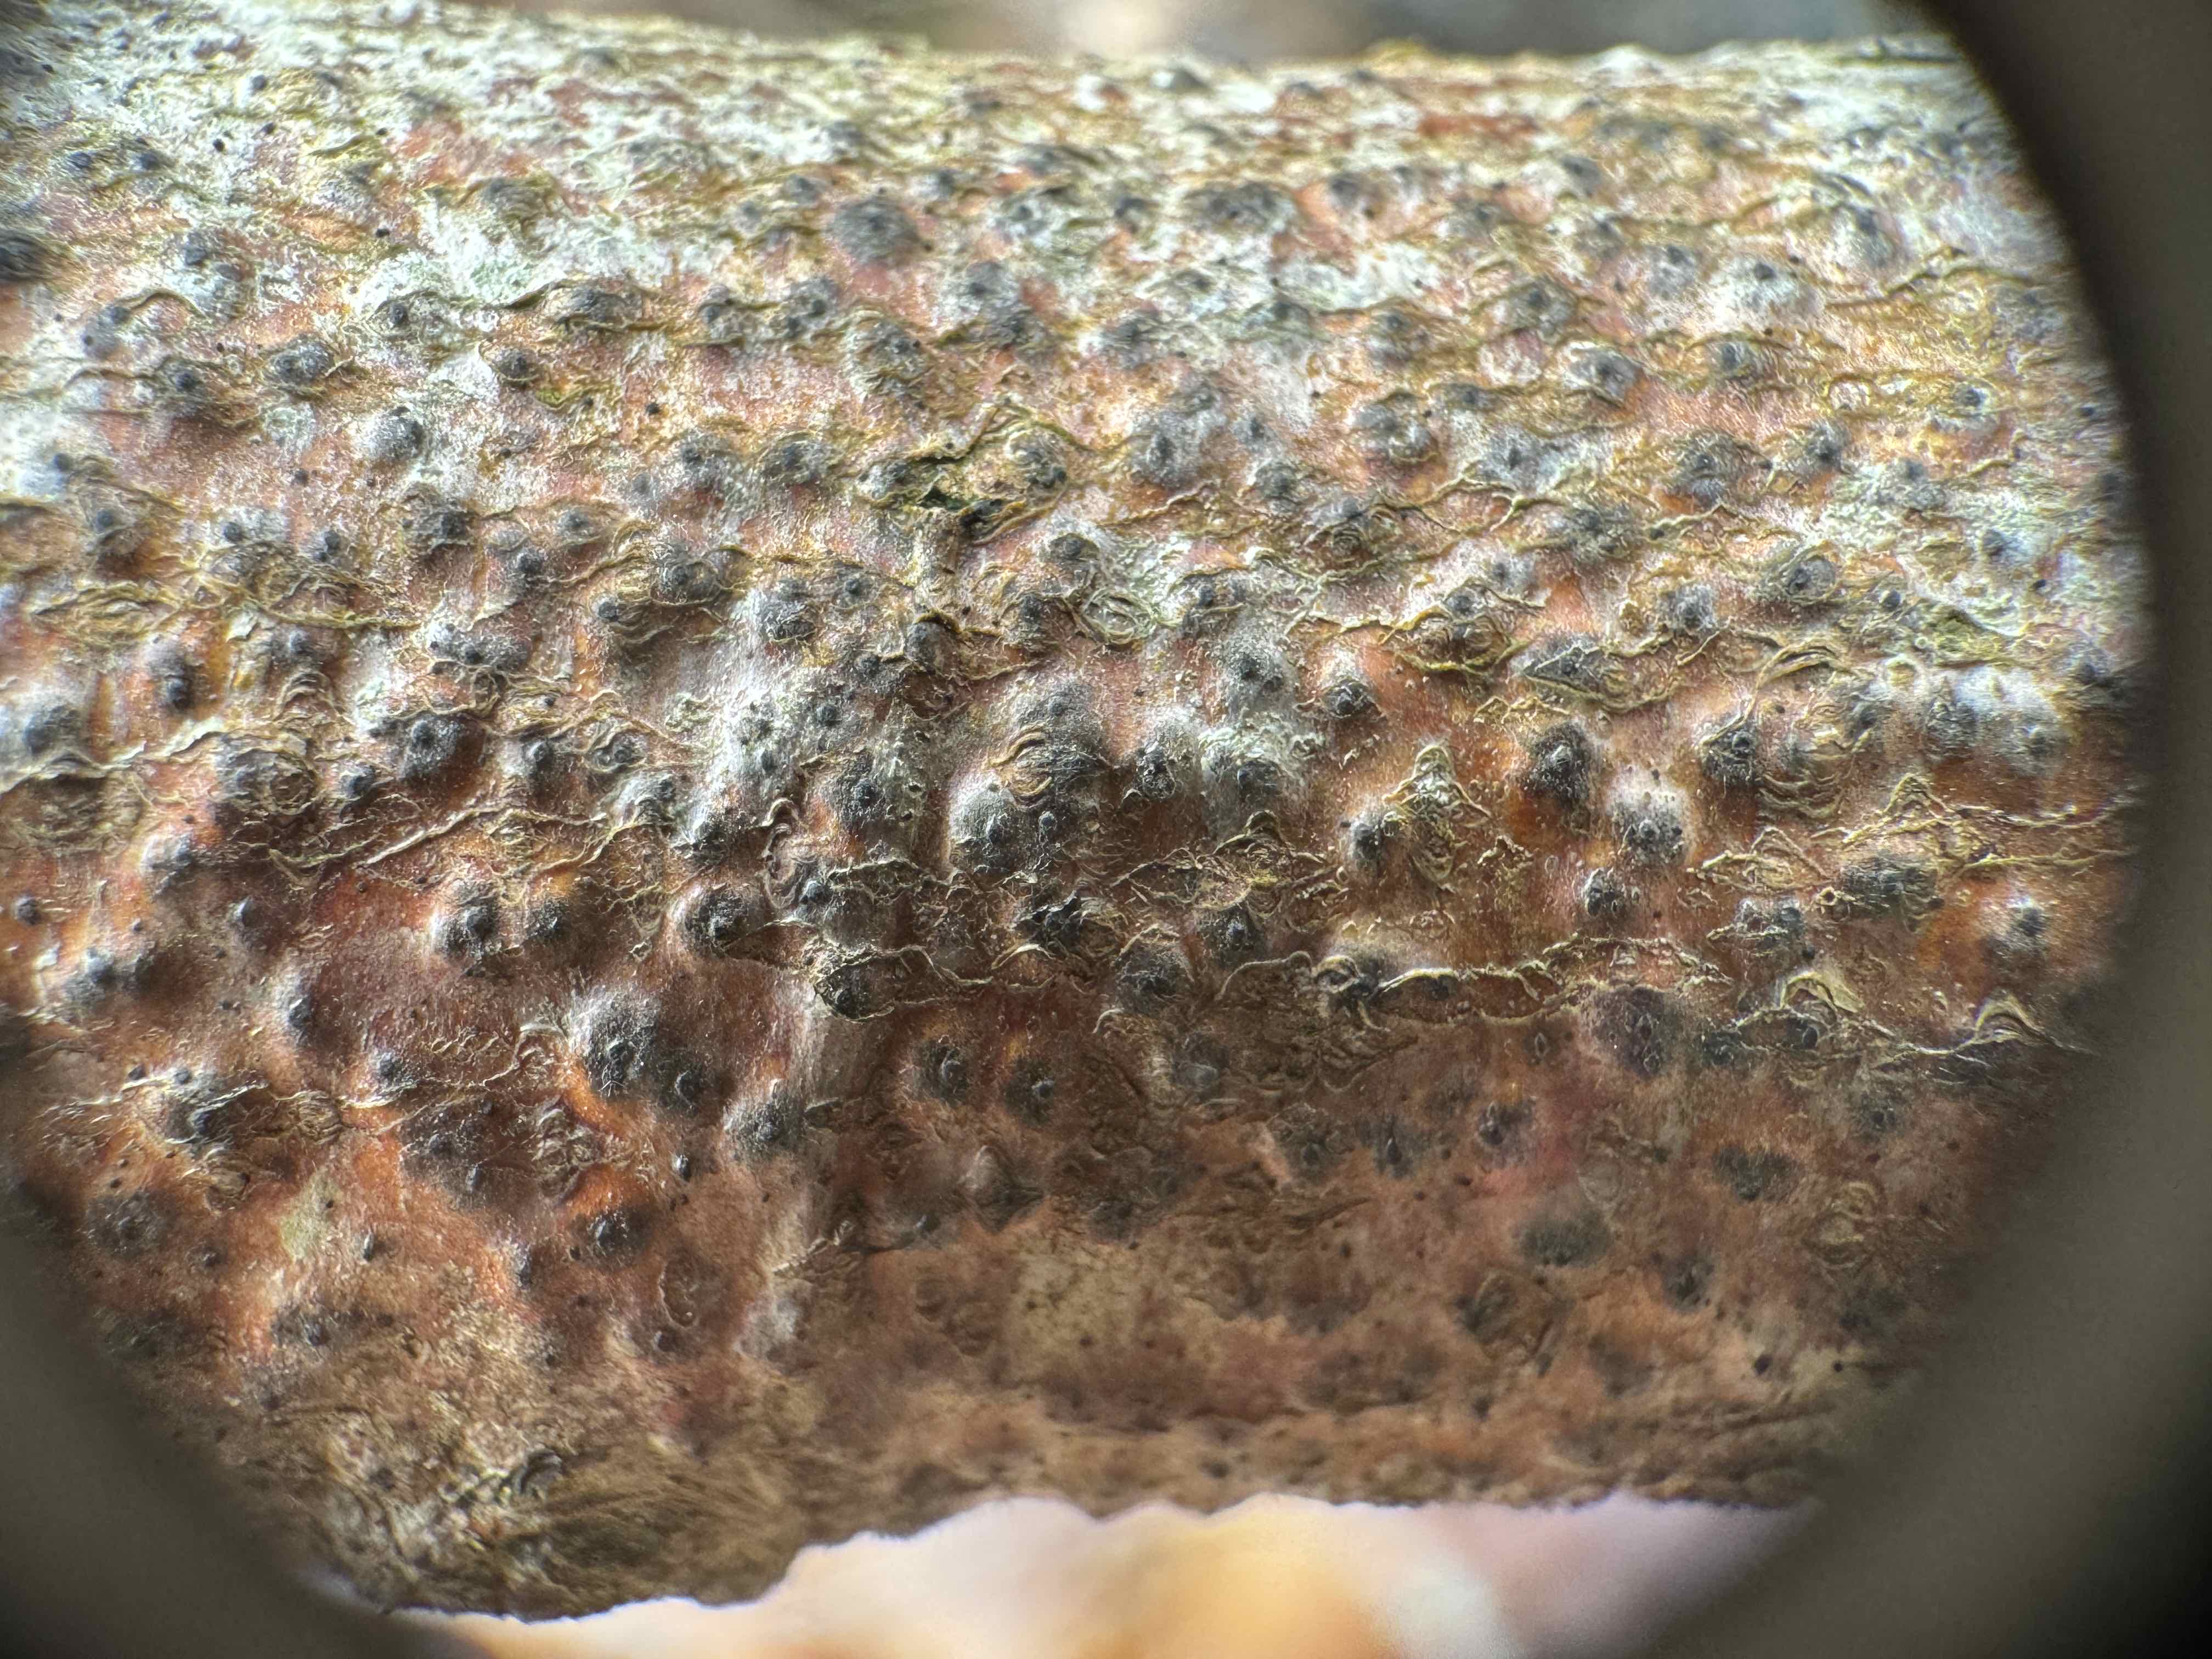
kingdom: Fungi
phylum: Ascomycota
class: Sordariomycetes
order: Xylariales
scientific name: Xylariales
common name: stødsvampordenen
